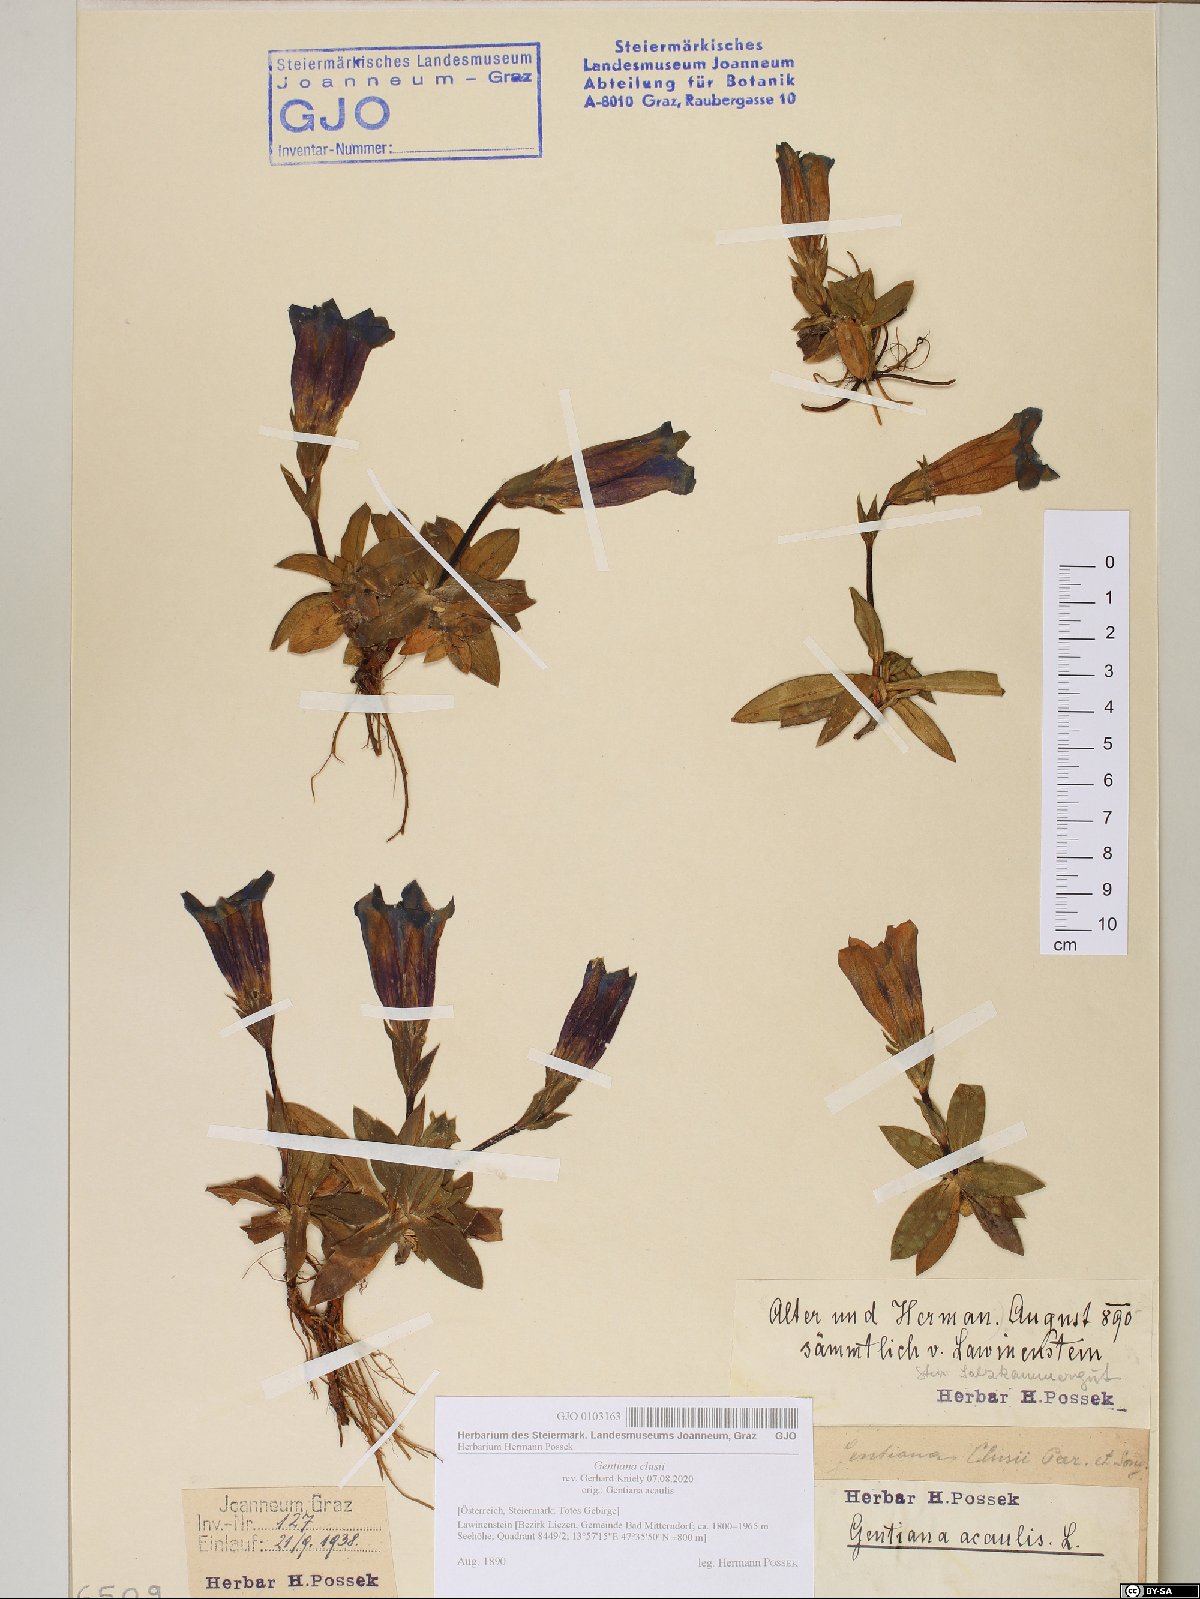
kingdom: Plantae
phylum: Tracheophyta
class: Magnoliopsida
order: Gentianales
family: Gentianaceae
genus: Gentiana
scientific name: Gentiana clusii
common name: Trumpet gentian
